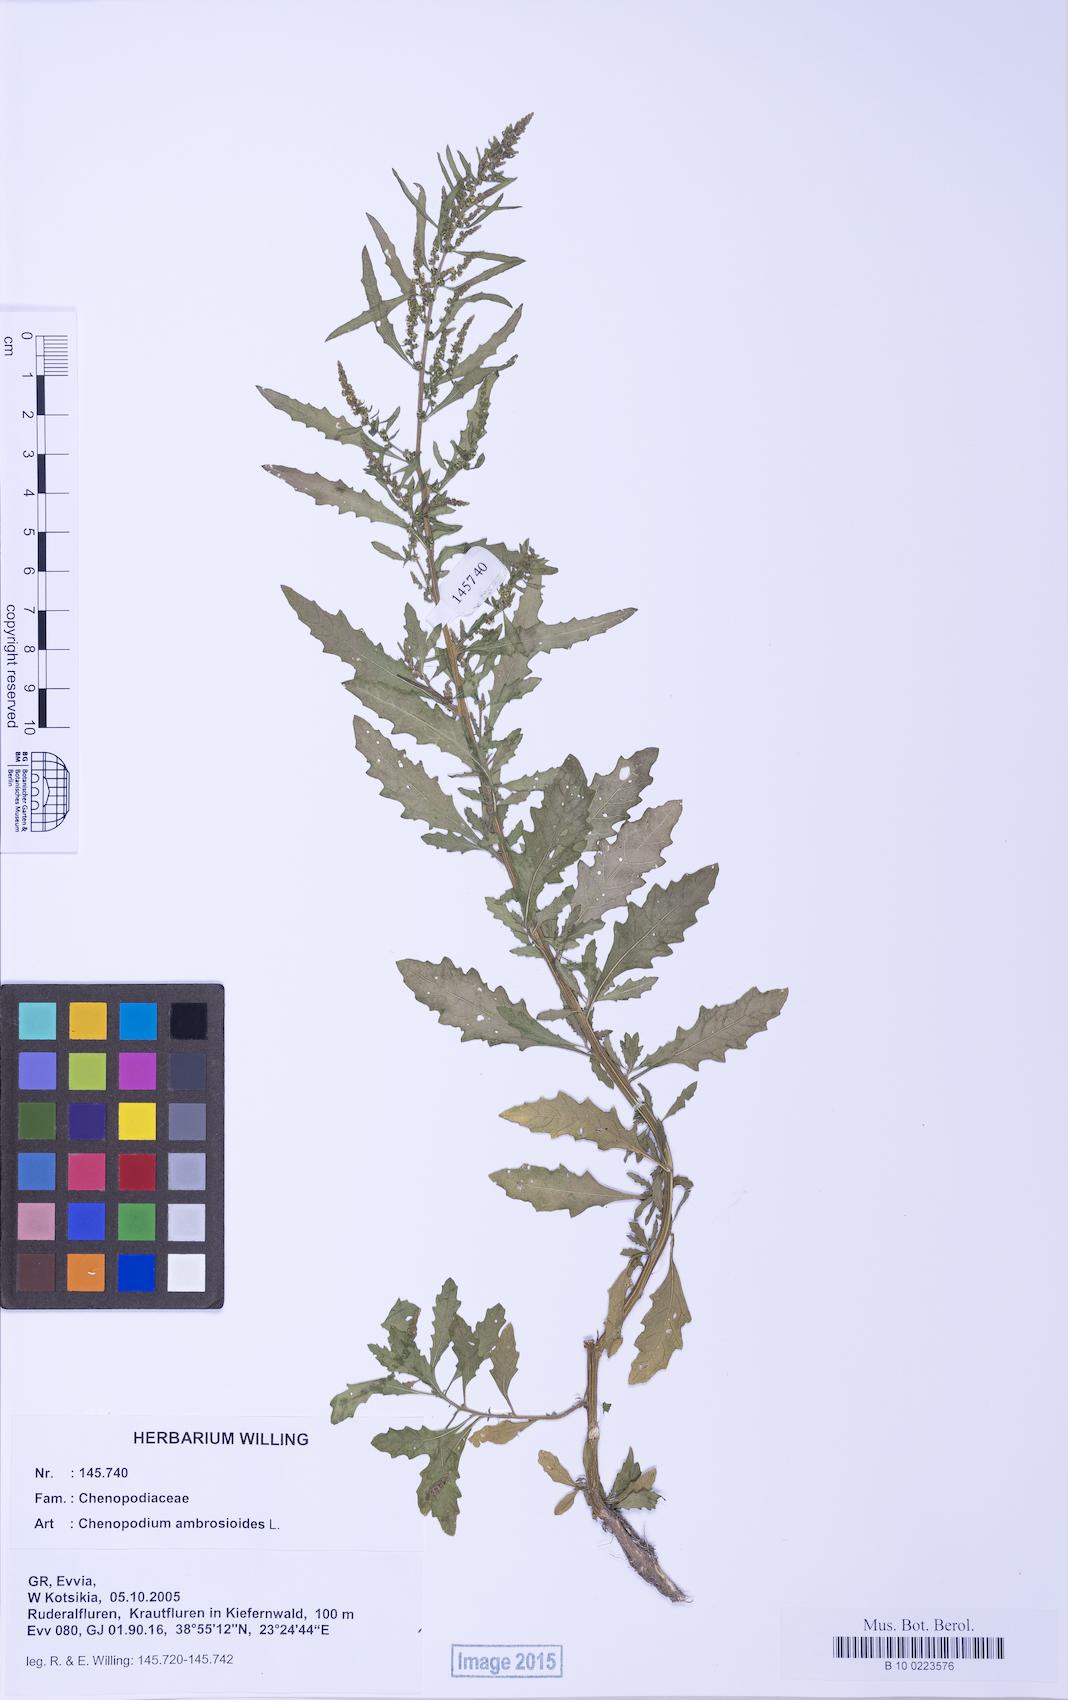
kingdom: Plantae
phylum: Tracheophyta
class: Magnoliopsida
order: Caryophyllales
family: Amaranthaceae
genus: Dysphania
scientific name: Dysphania ambrosioides
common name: Wormseed
